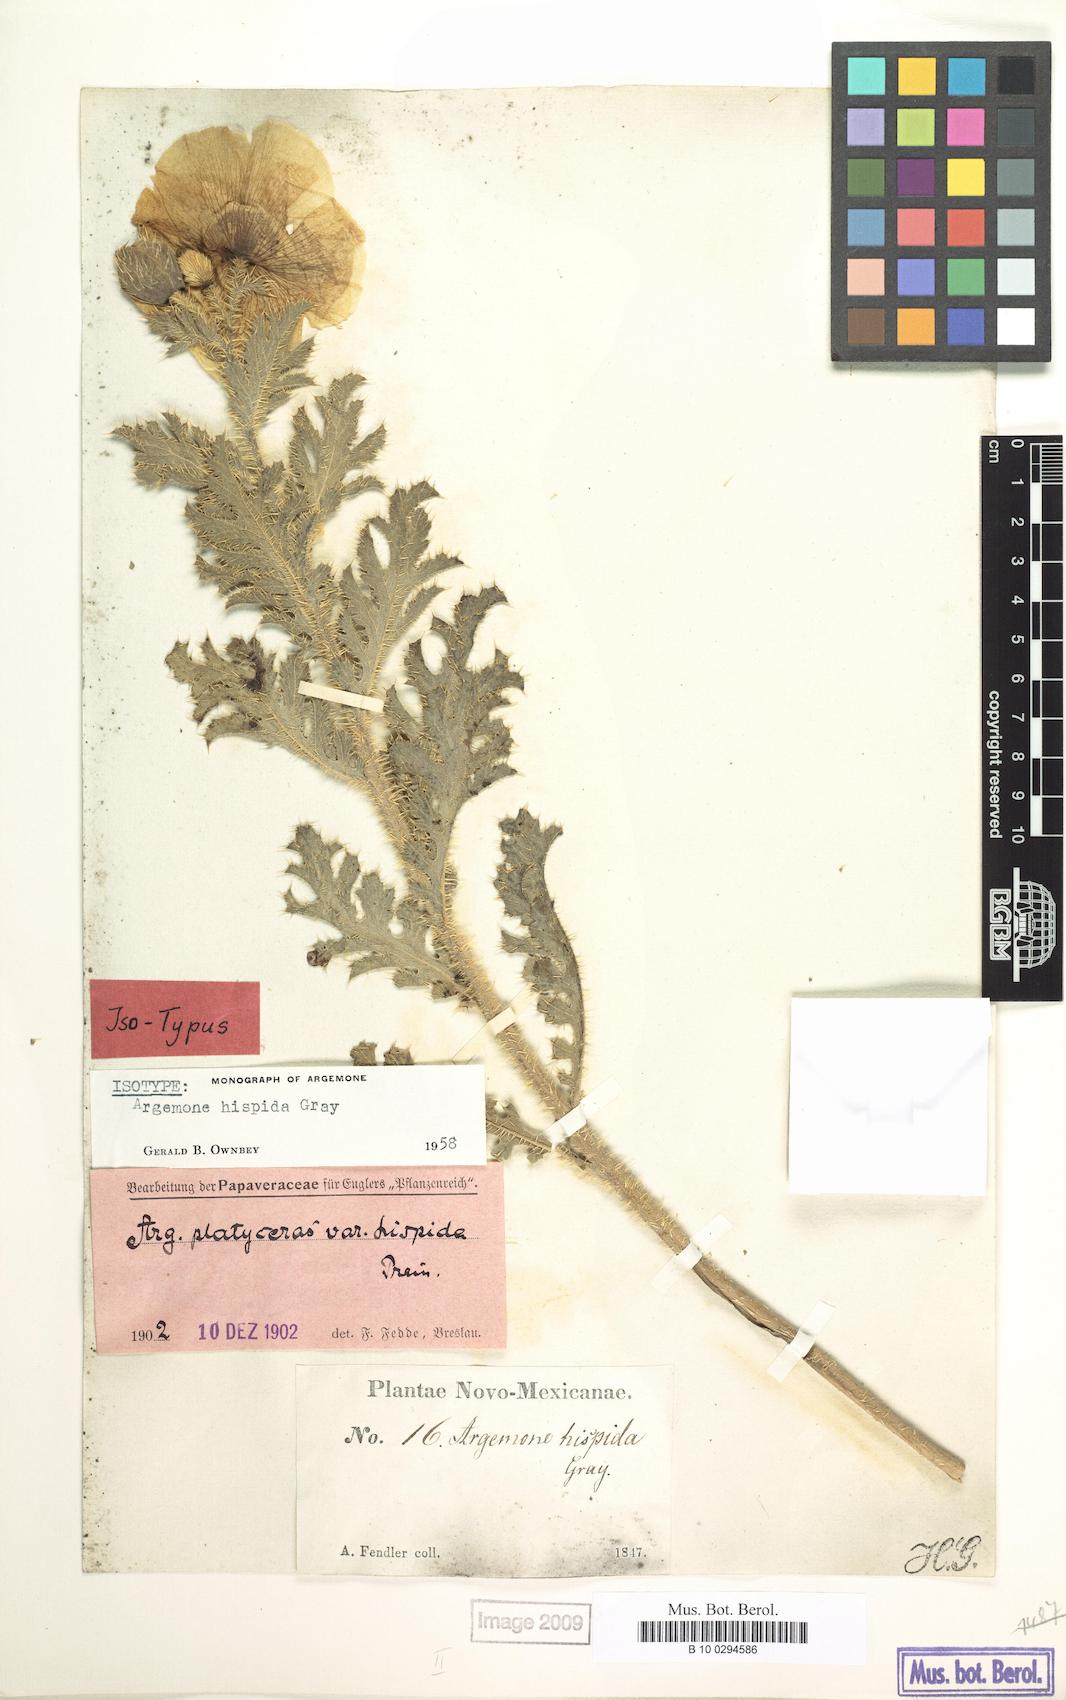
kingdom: Plantae
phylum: Tracheophyta
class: Magnoliopsida
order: Ranunculales
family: Papaveraceae
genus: Argemone
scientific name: Argemone hispida
